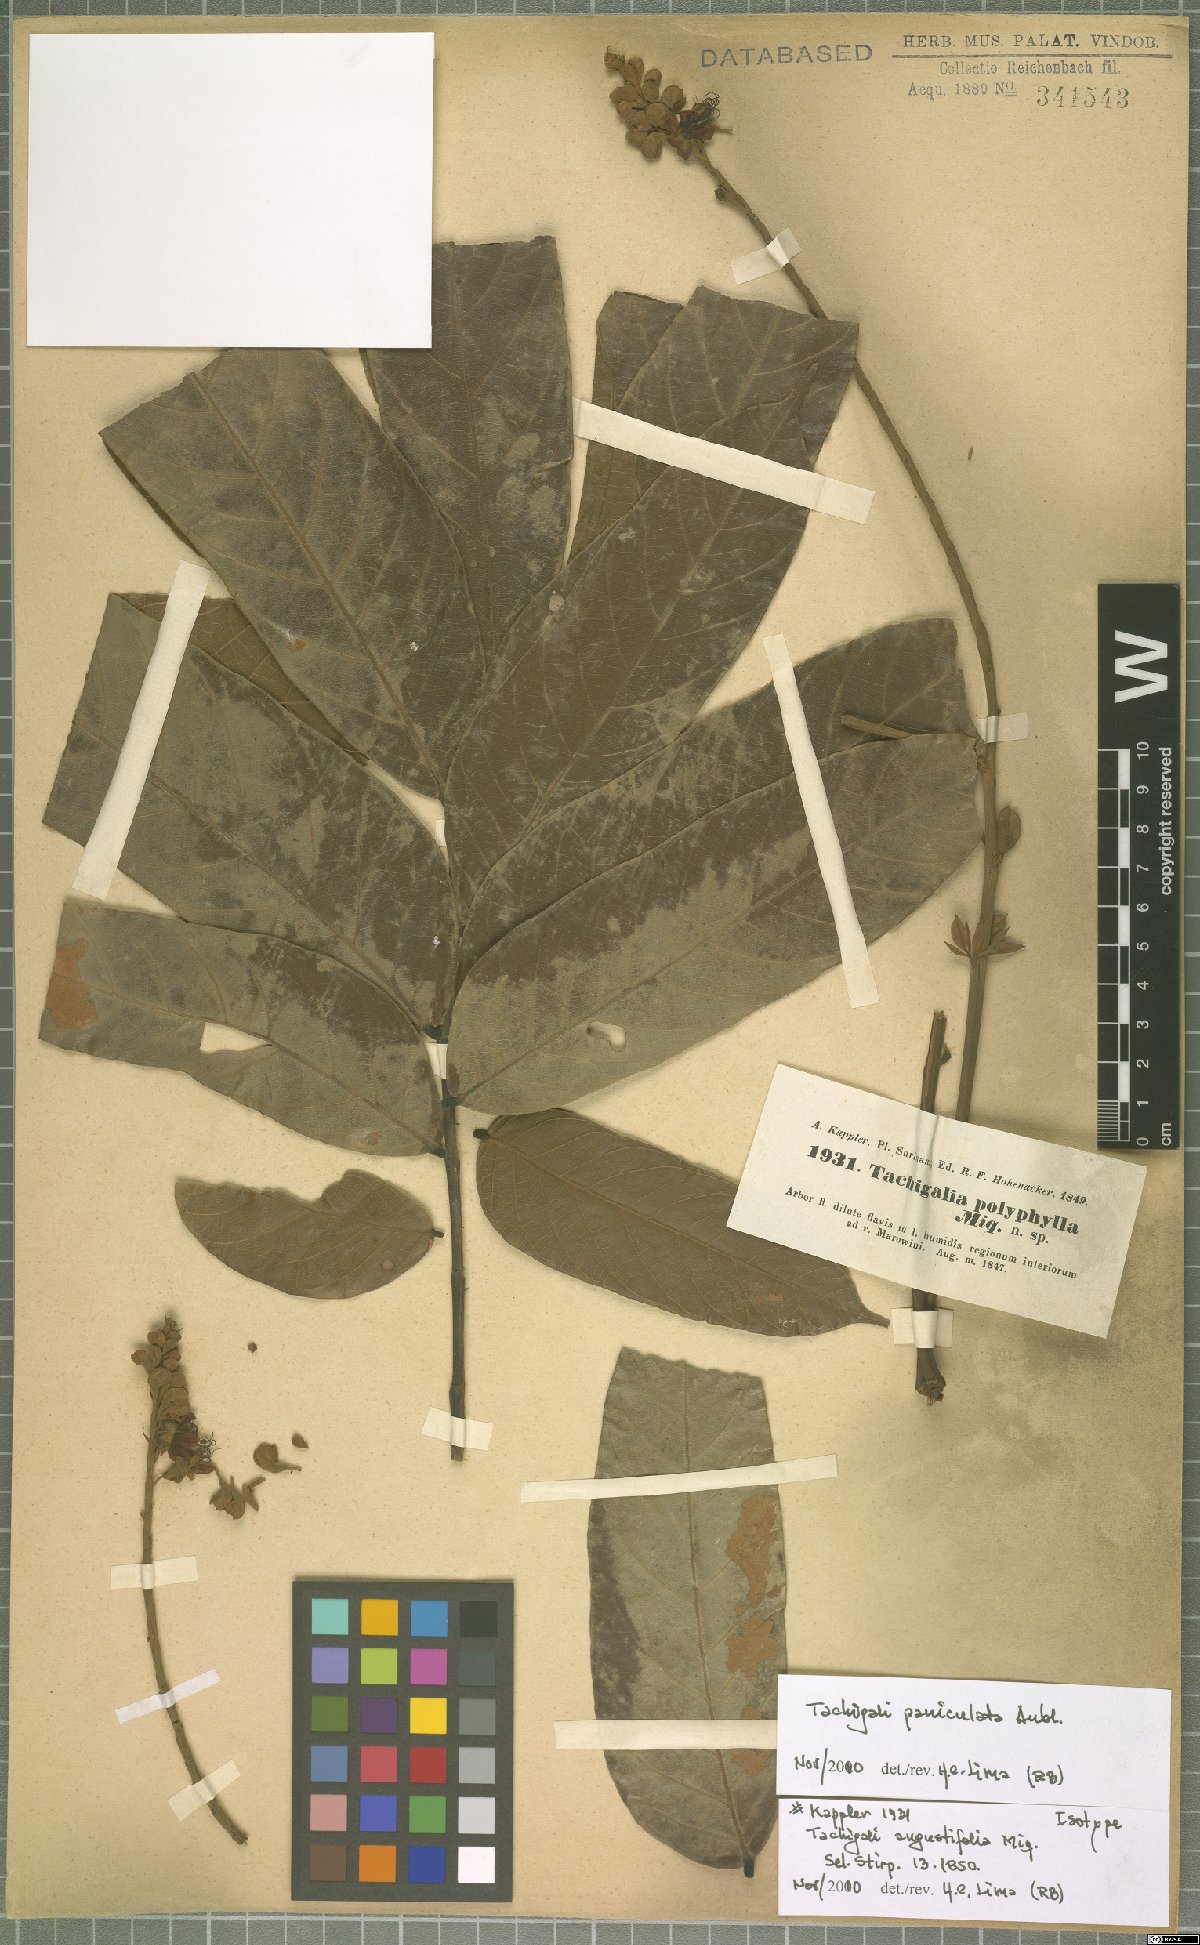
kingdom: Plantae
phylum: Tracheophyta
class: Magnoliopsida
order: Fabales
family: Fabaceae
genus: Tachigali
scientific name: Tachigali paniculata
